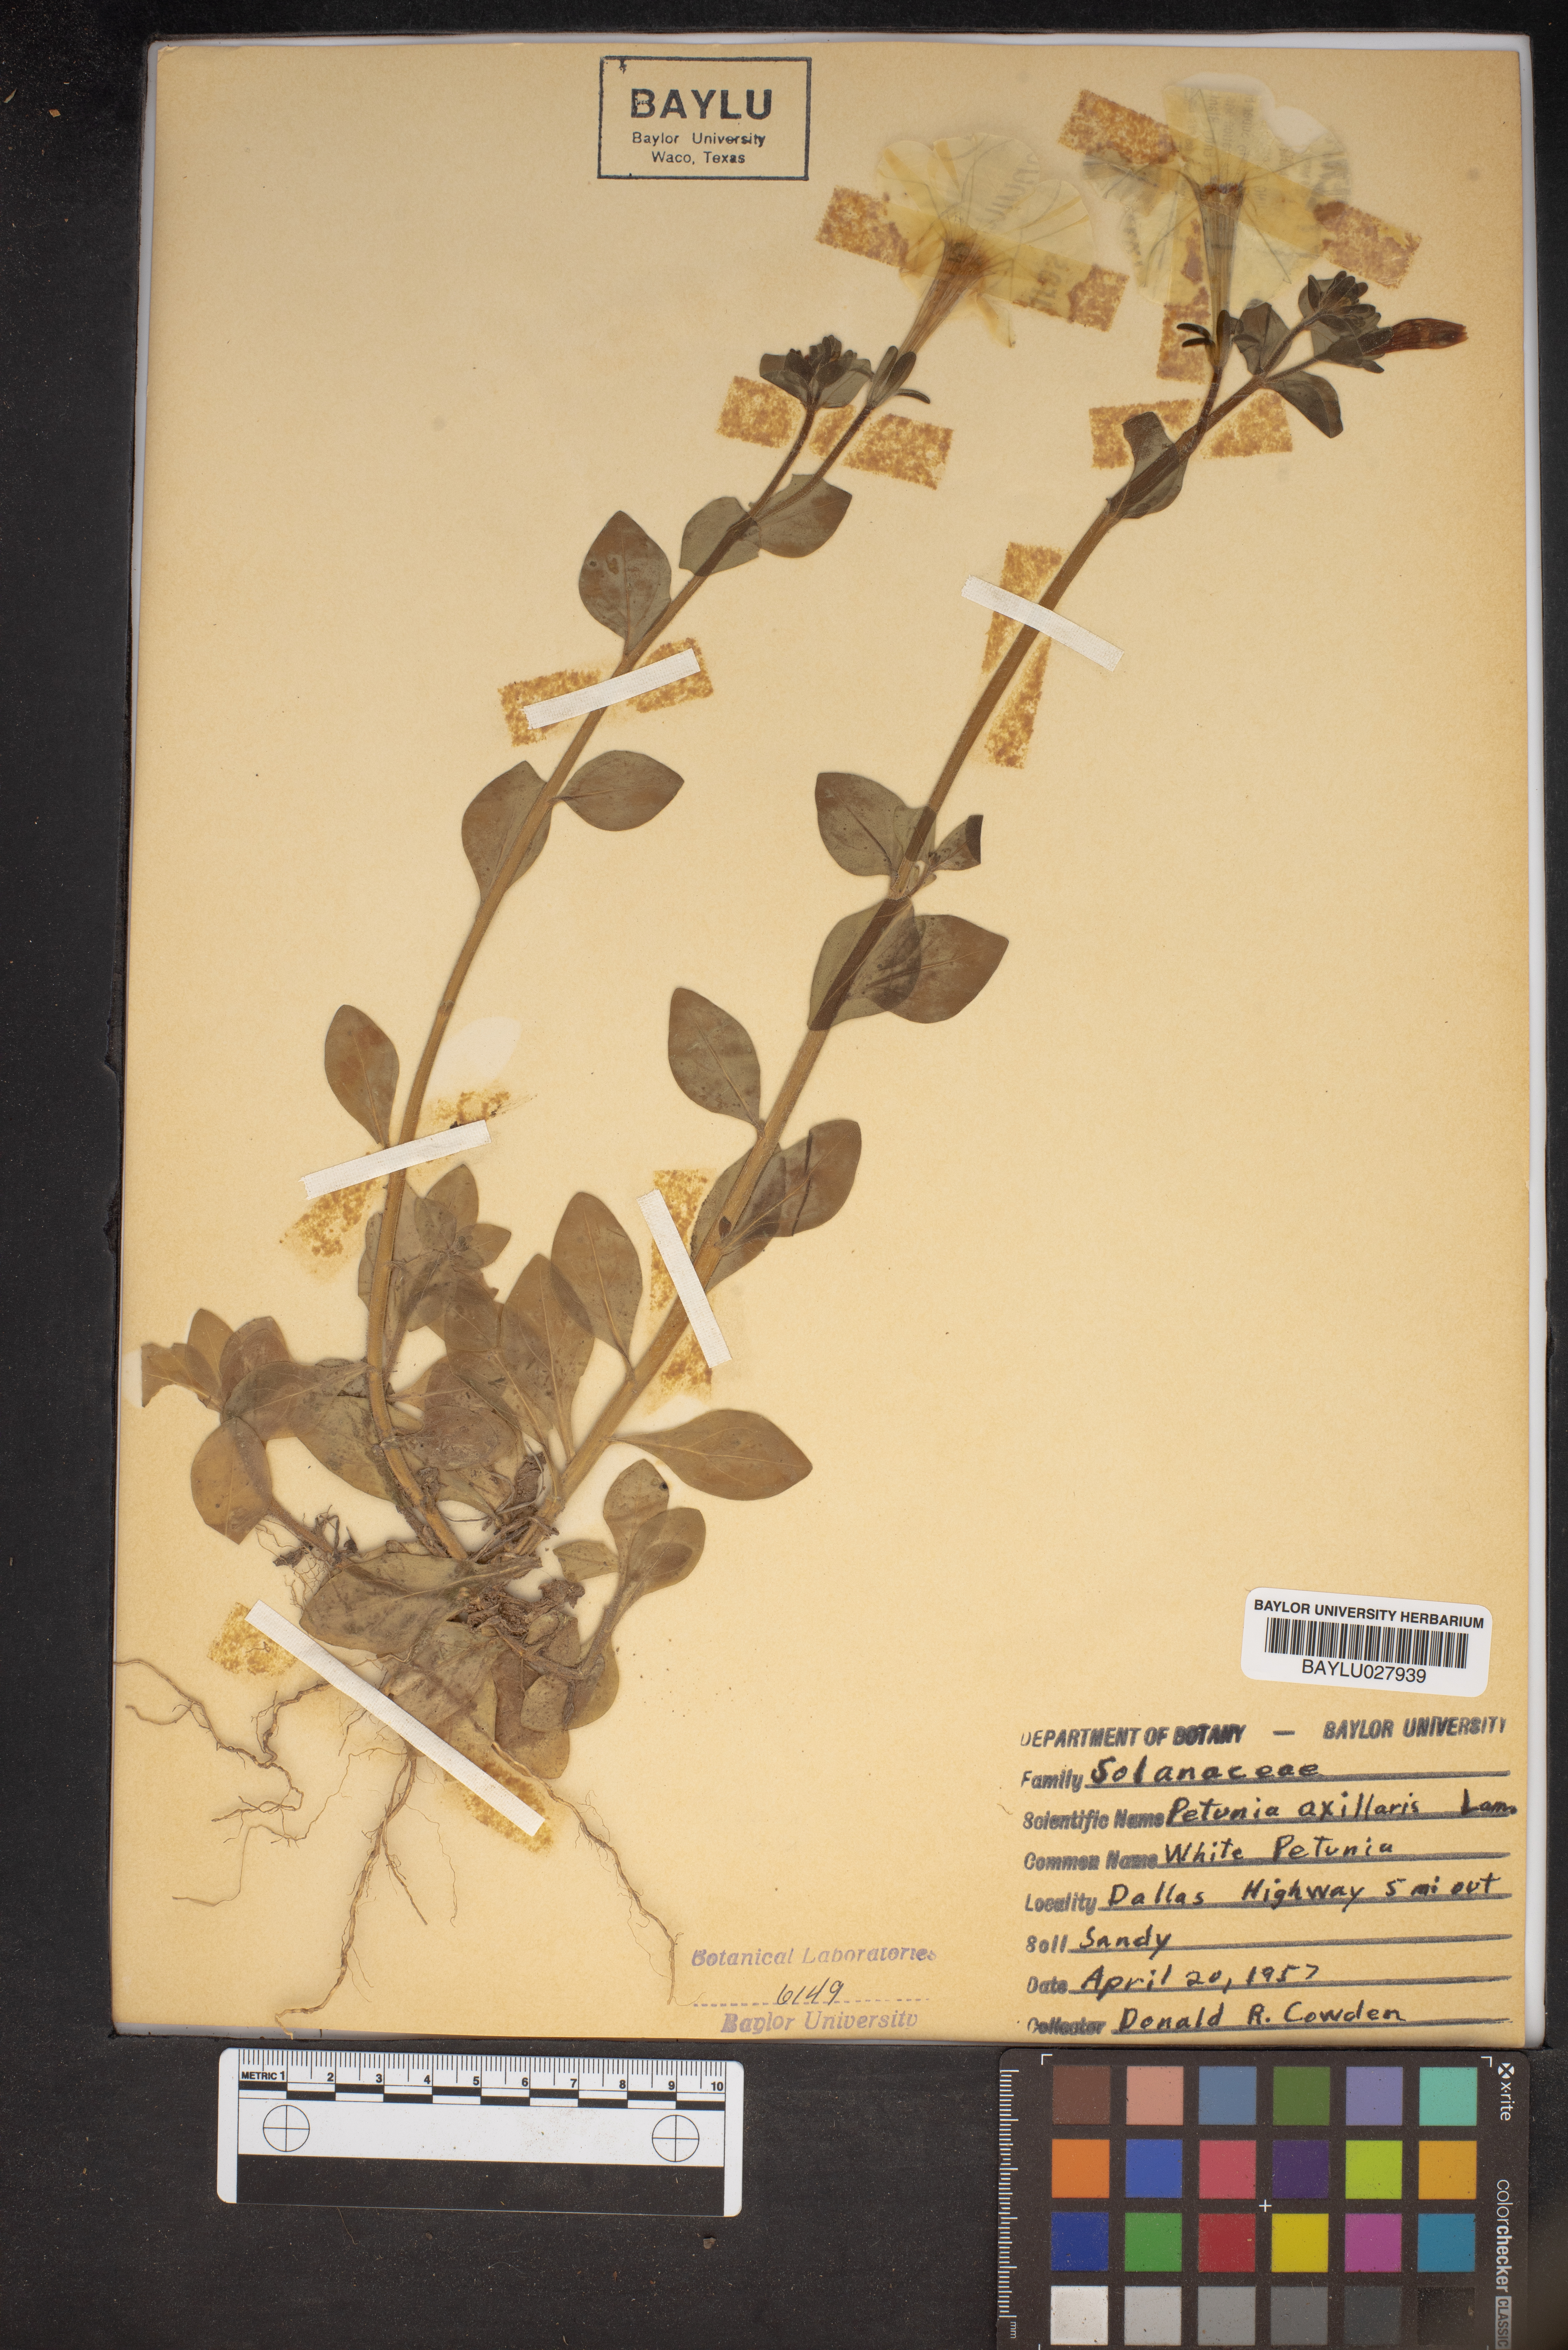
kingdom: Plantae
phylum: Tracheophyta
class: Magnoliopsida
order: Solanales
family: Solanaceae
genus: Petunia
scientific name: Petunia axillaris
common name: Large white petunia
